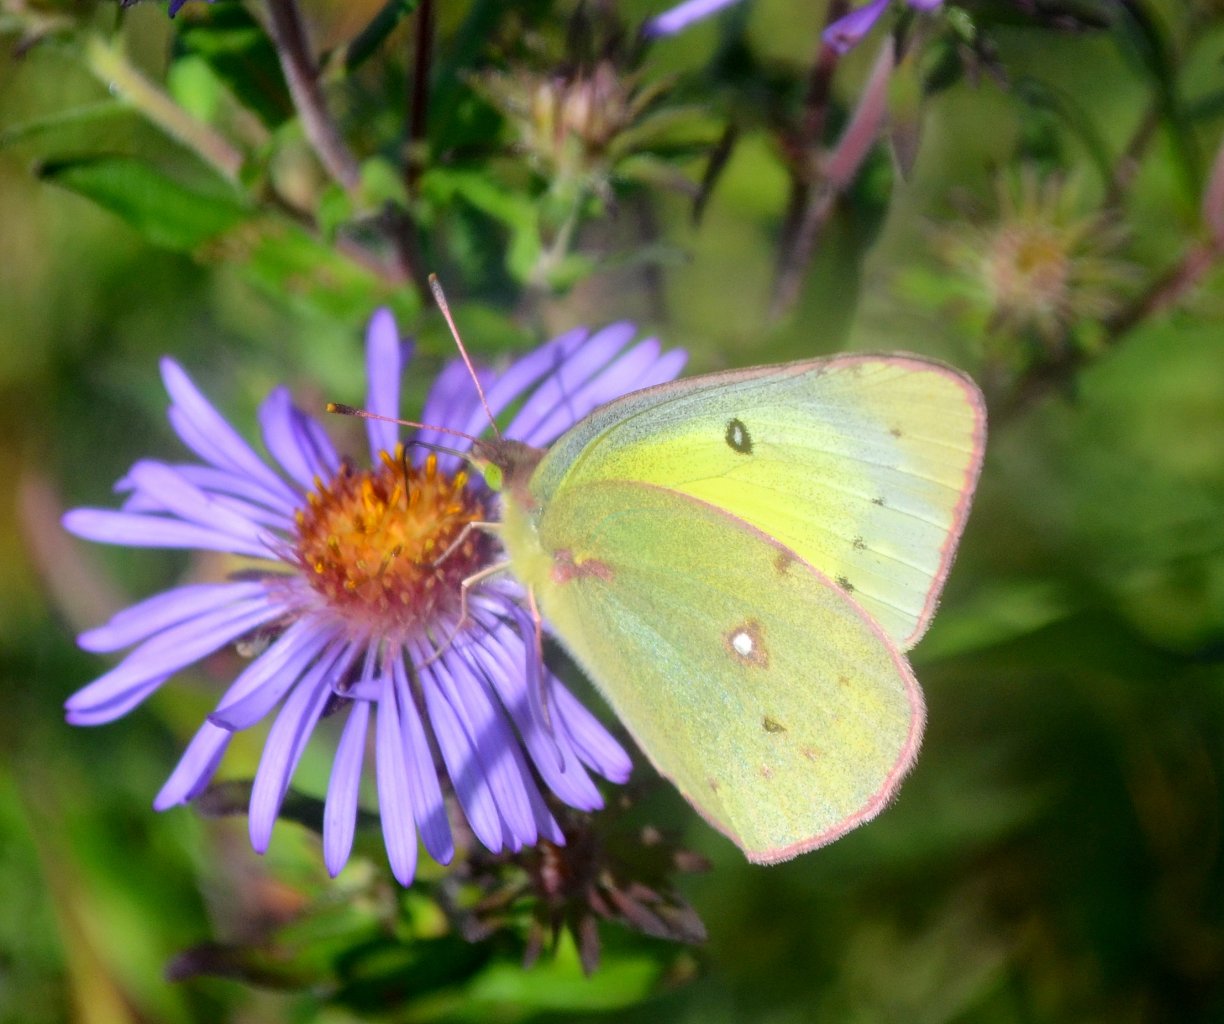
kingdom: Animalia
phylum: Arthropoda
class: Insecta
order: Lepidoptera
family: Pieridae
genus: Colias
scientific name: Colias philodice
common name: Clouded Sulphur
